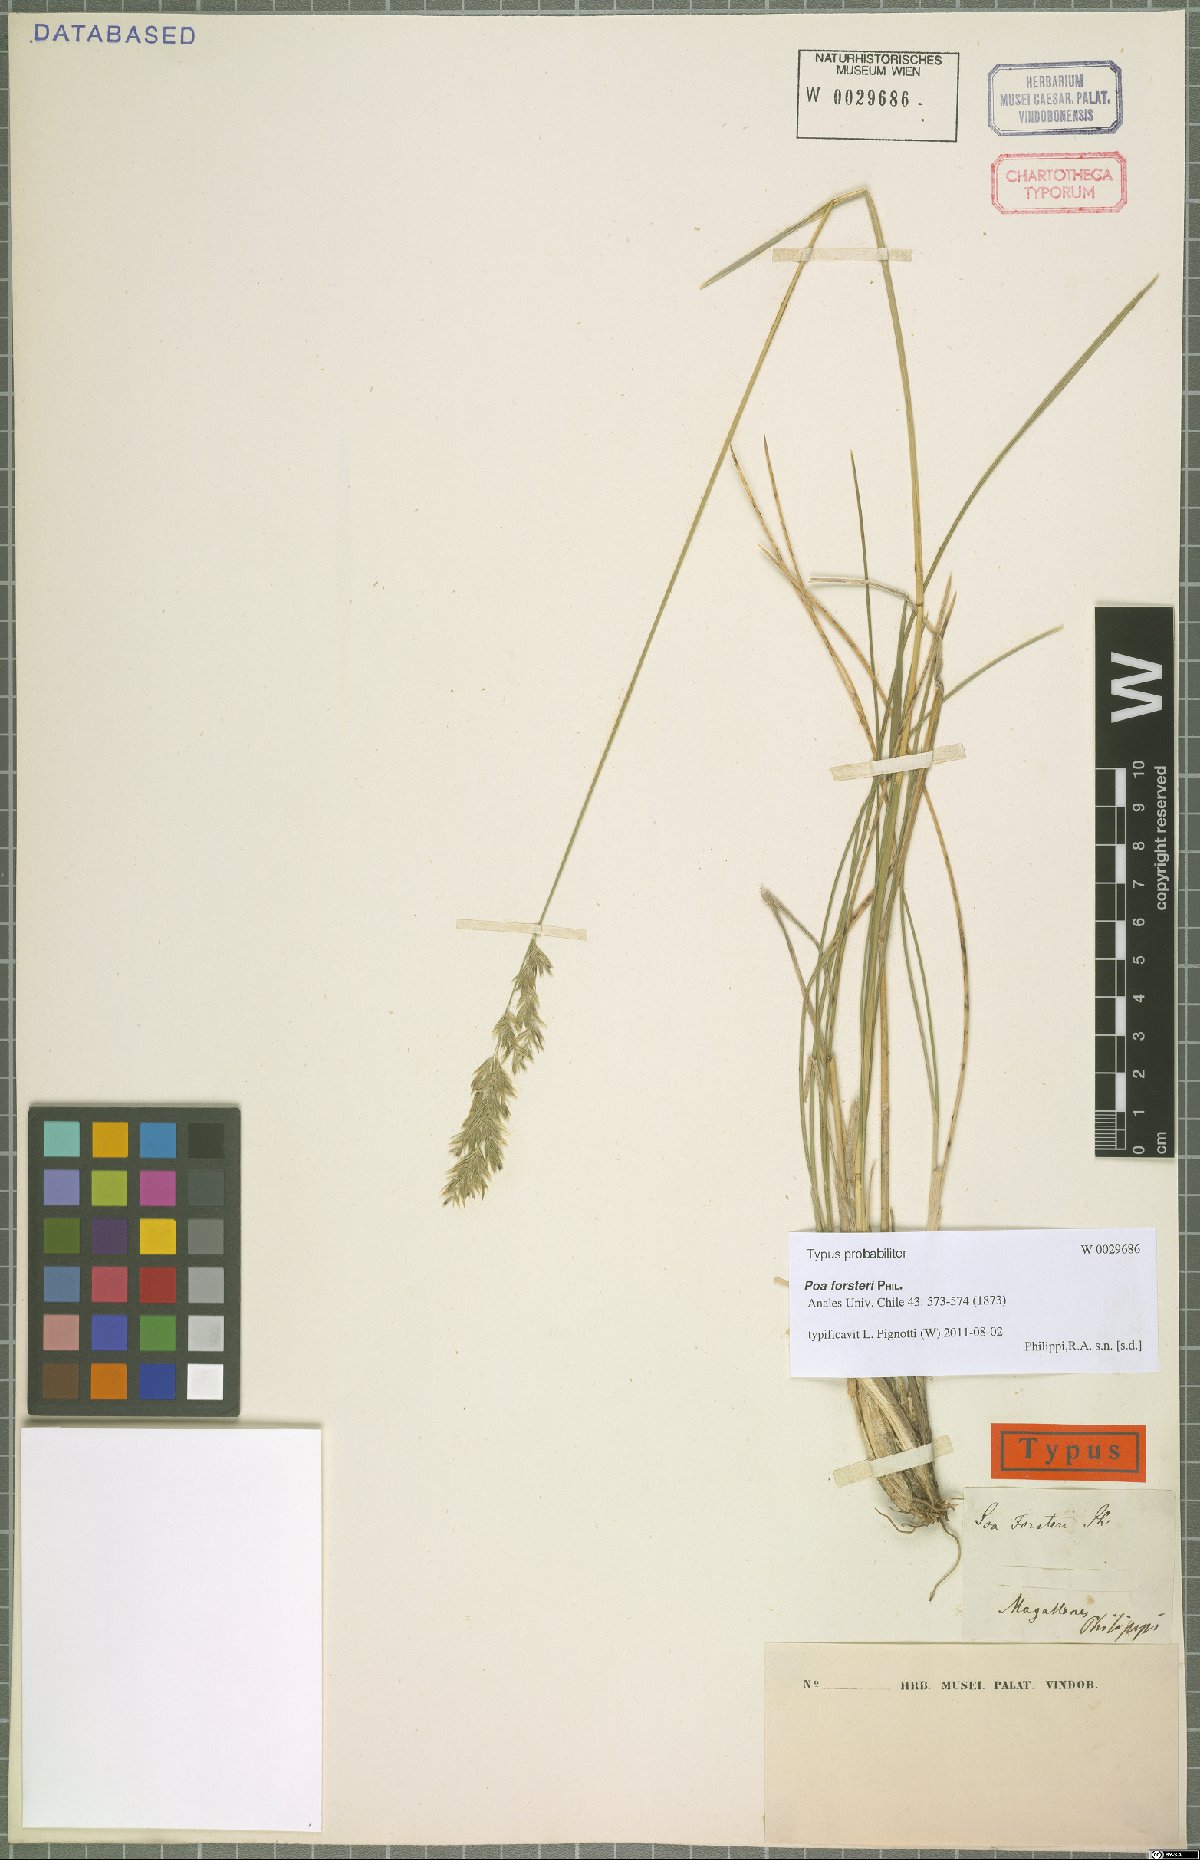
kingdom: Plantae
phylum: Tracheophyta
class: Liliopsida
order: Poales
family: Poaceae
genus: Poa
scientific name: Poa forsteri
